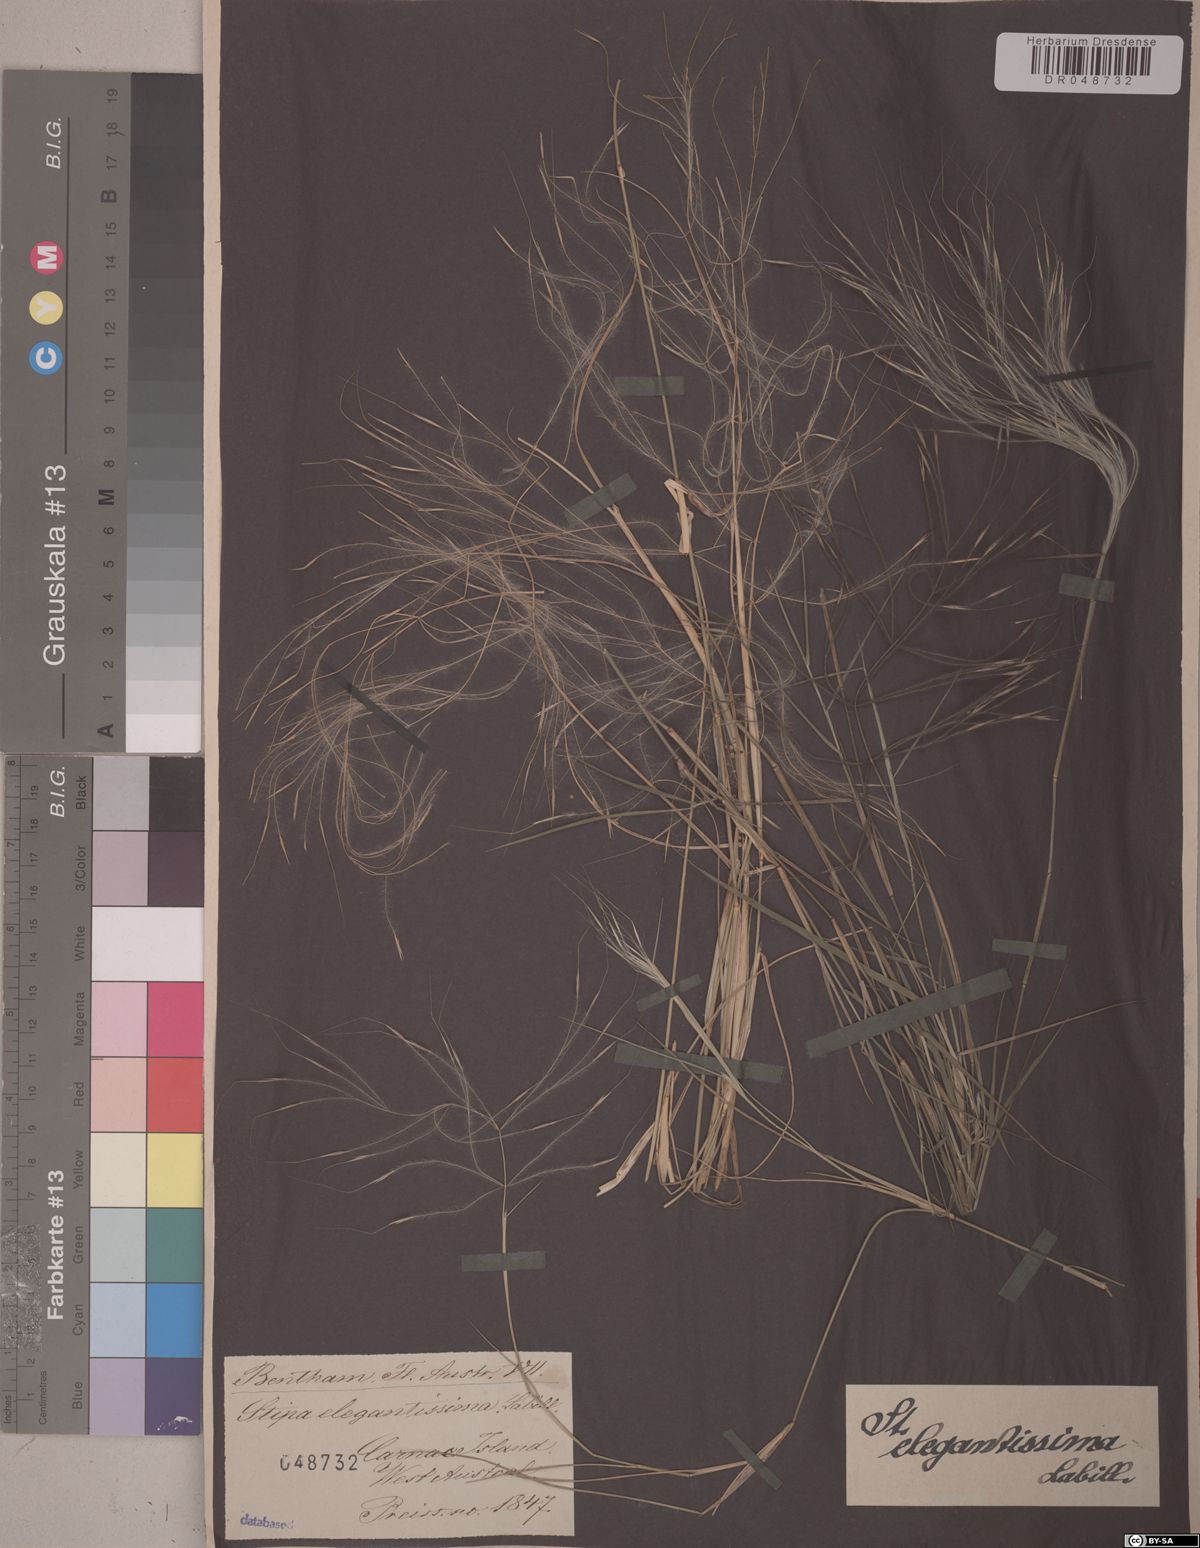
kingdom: Plantae
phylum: Tracheophyta
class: Liliopsida
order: Poales
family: Poaceae
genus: Austrostipa
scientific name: Austrostipa elegantissima
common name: Feather spear grass
